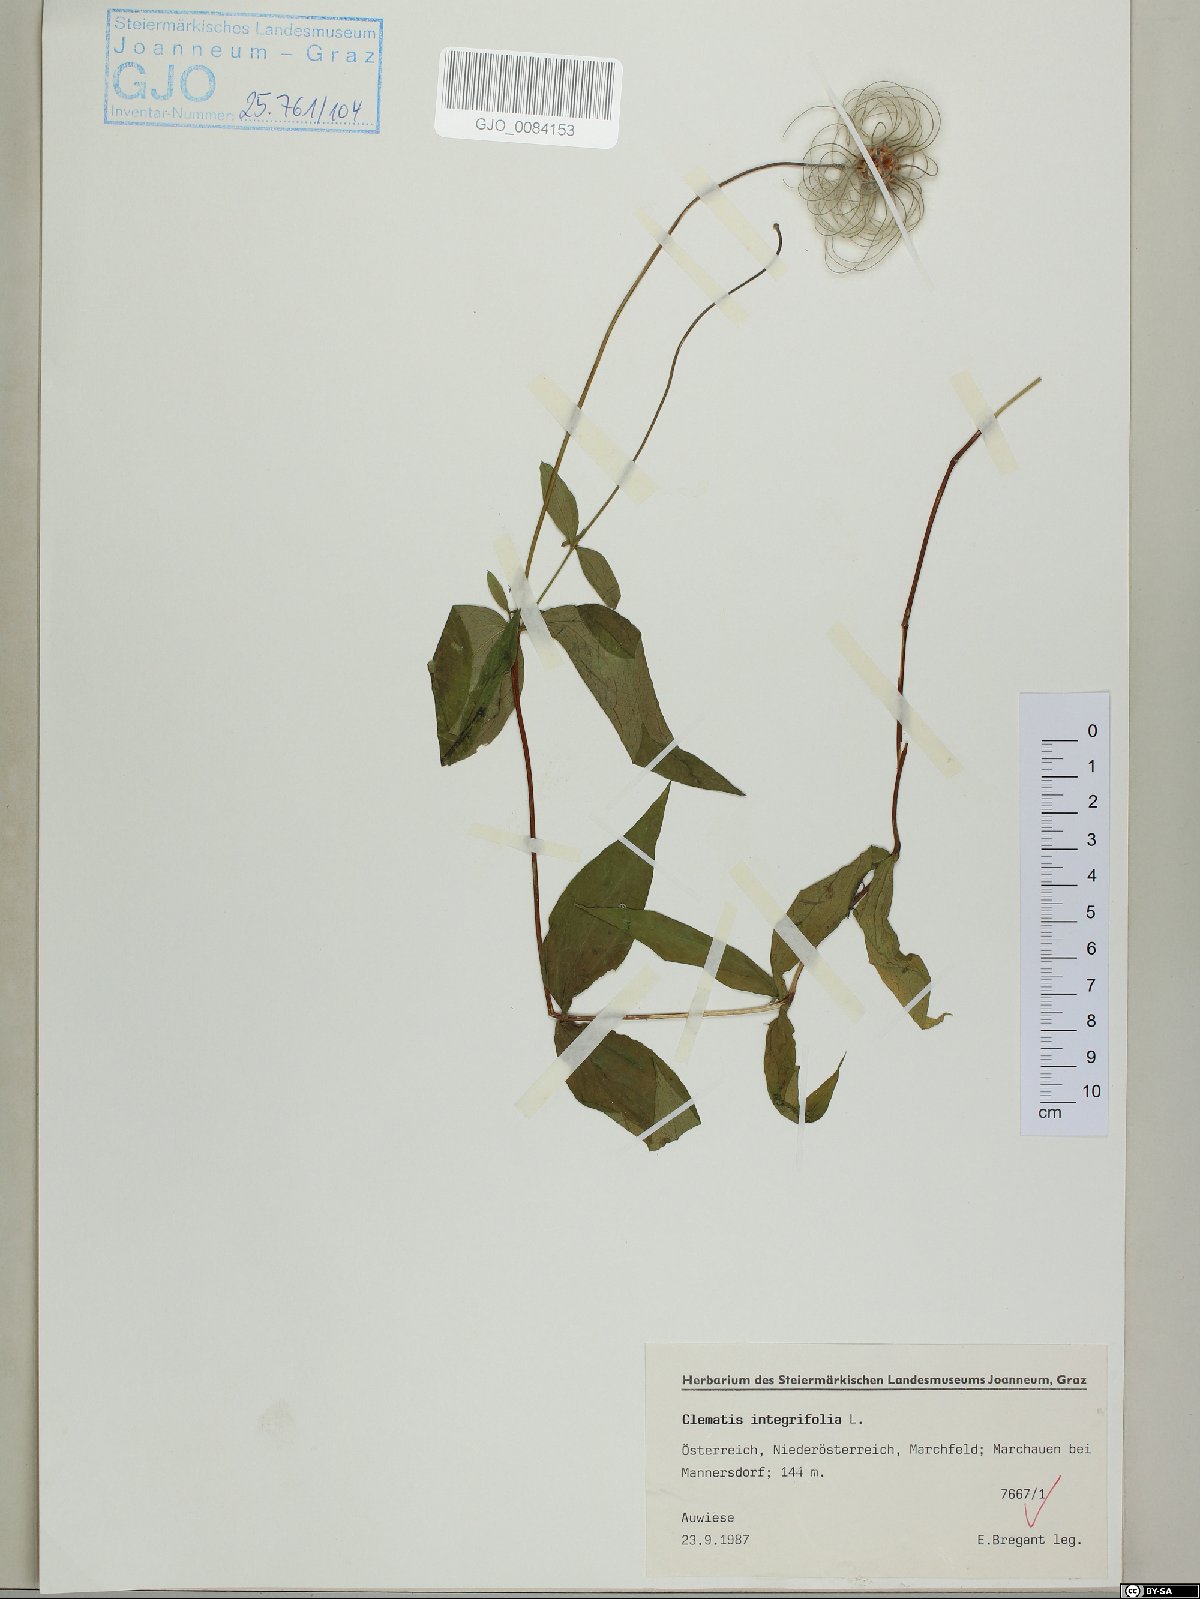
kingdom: Plantae
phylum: Tracheophyta
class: Magnoliopsida
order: Ranunculales
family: Ranunculaceae
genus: Clematis
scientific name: Clematis integrifolia
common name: Solitary clematis
